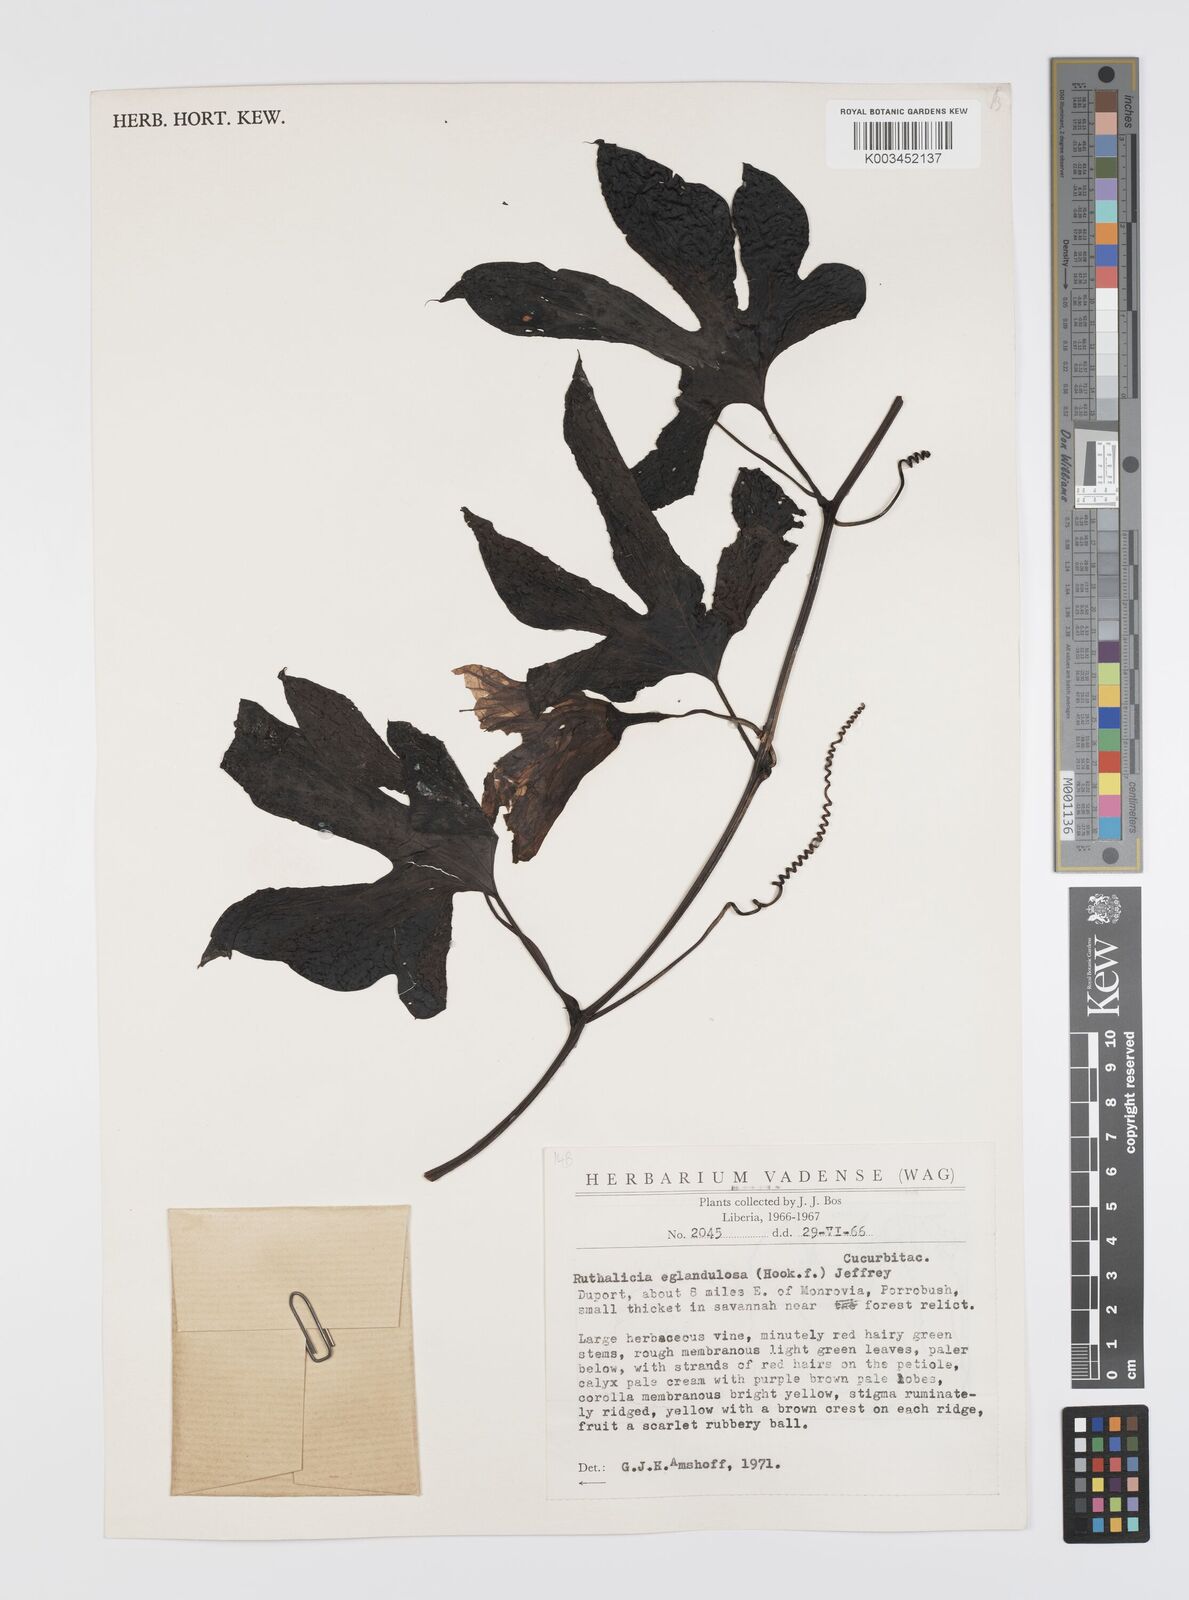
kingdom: Plantae
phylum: Tracheophyta
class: Magnoliopsida
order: Cucurbitales
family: Cucurbitaceae
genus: Ruthalicia
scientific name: Ruthalicia eglandulosa
